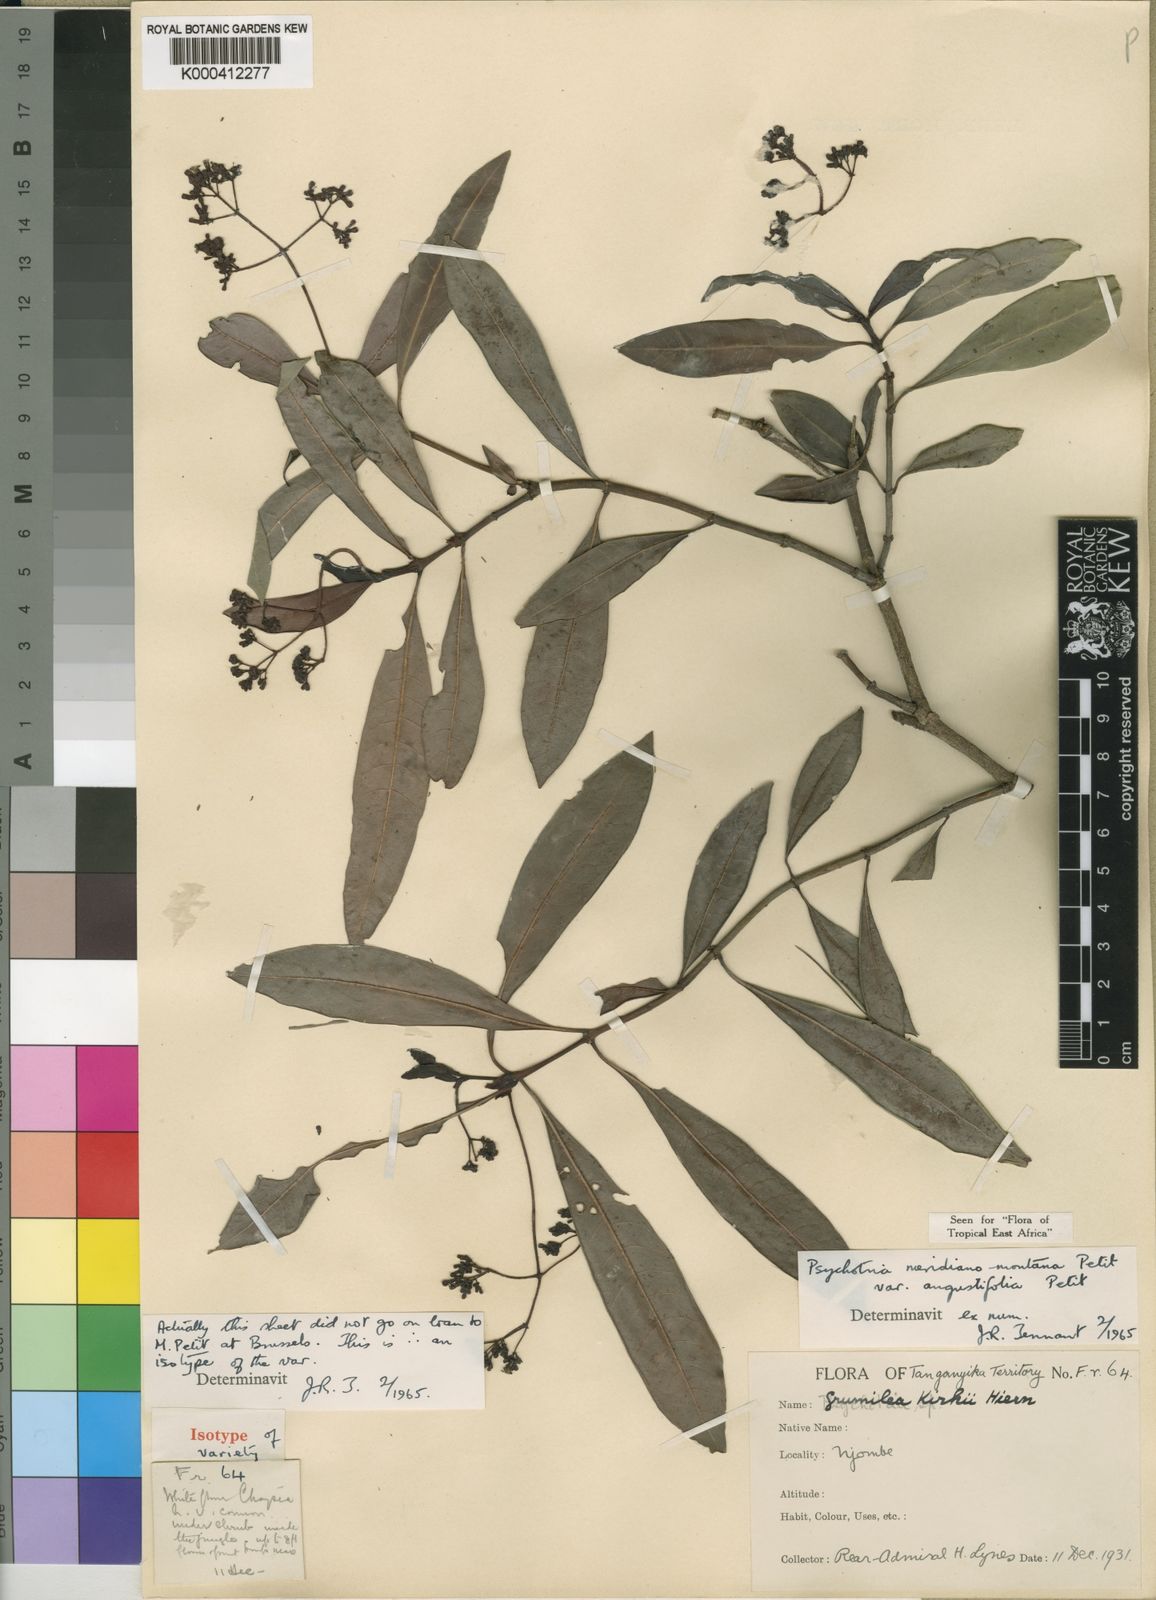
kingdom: Plantae
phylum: Tracheophyta
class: Magnoliopsida
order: Gentianales
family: Rubiaceae
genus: Psychotria
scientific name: Psychotria zombamontana
